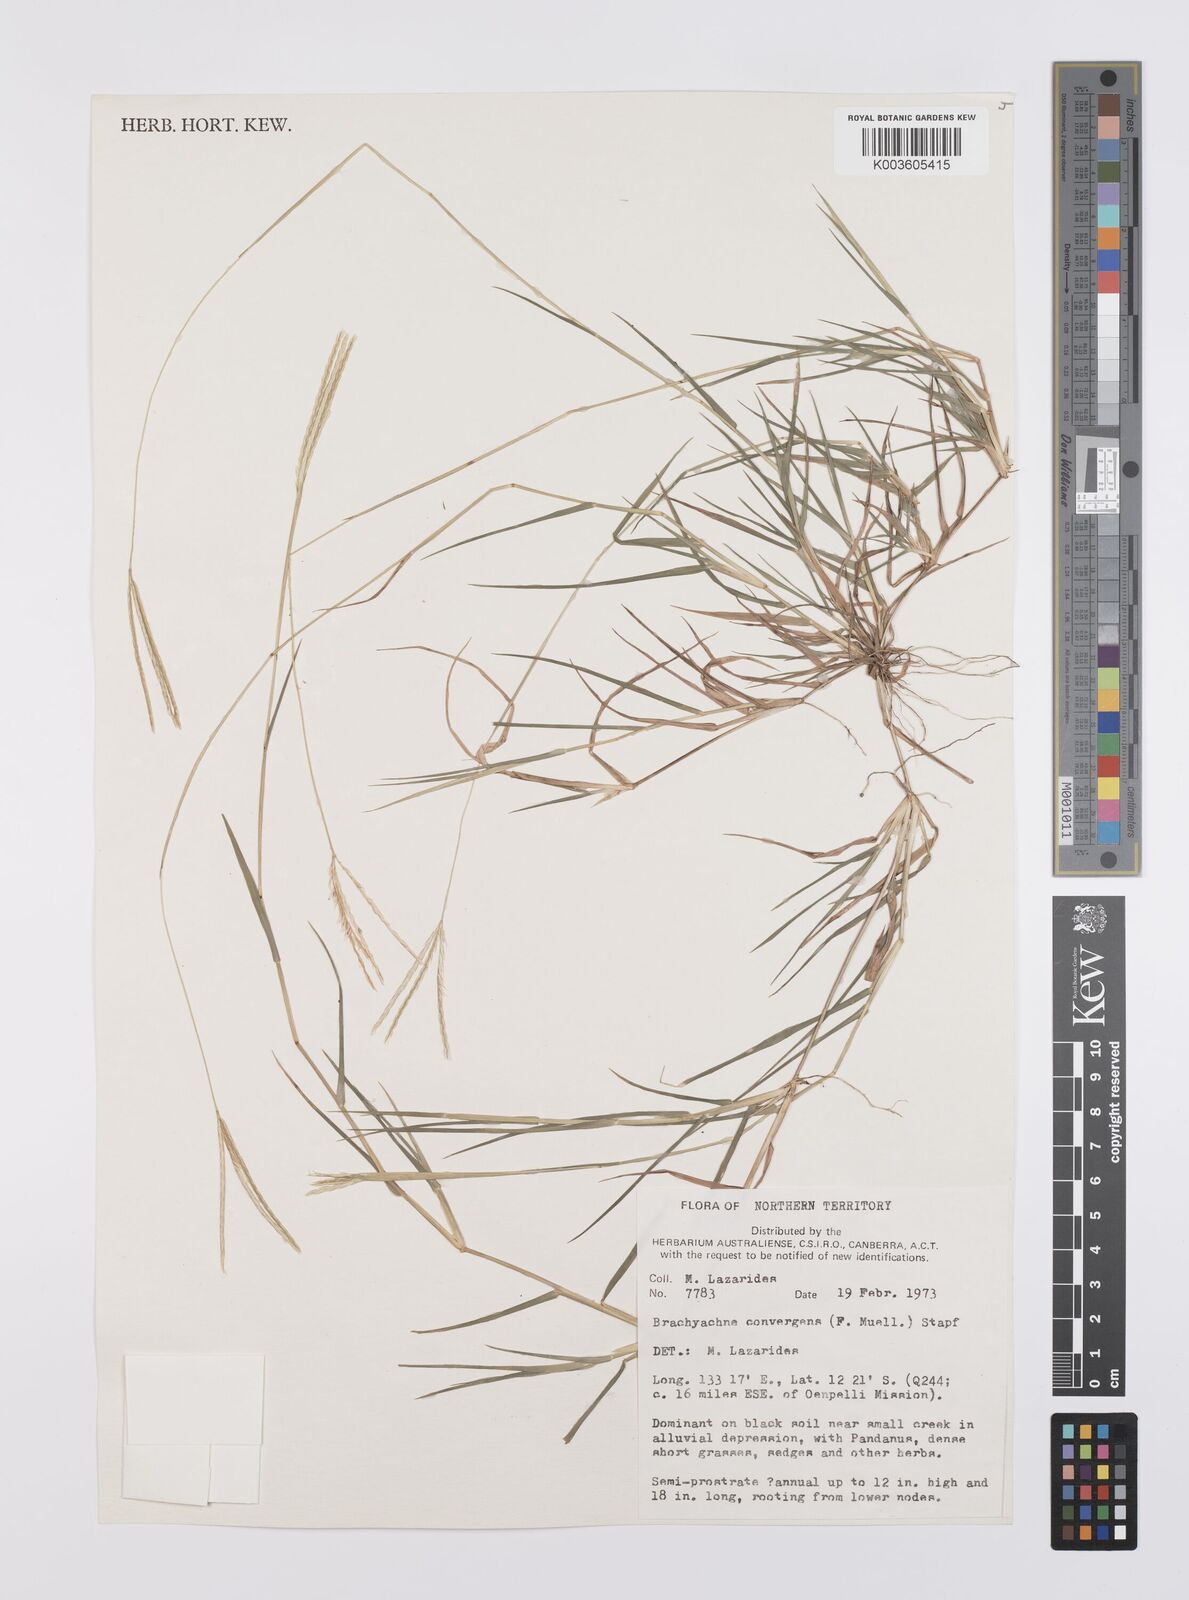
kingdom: Plantae
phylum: Tracheophyta
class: Liliopsida
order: Poales
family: Poaceae
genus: Cynodon
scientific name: Cynodon convergens
